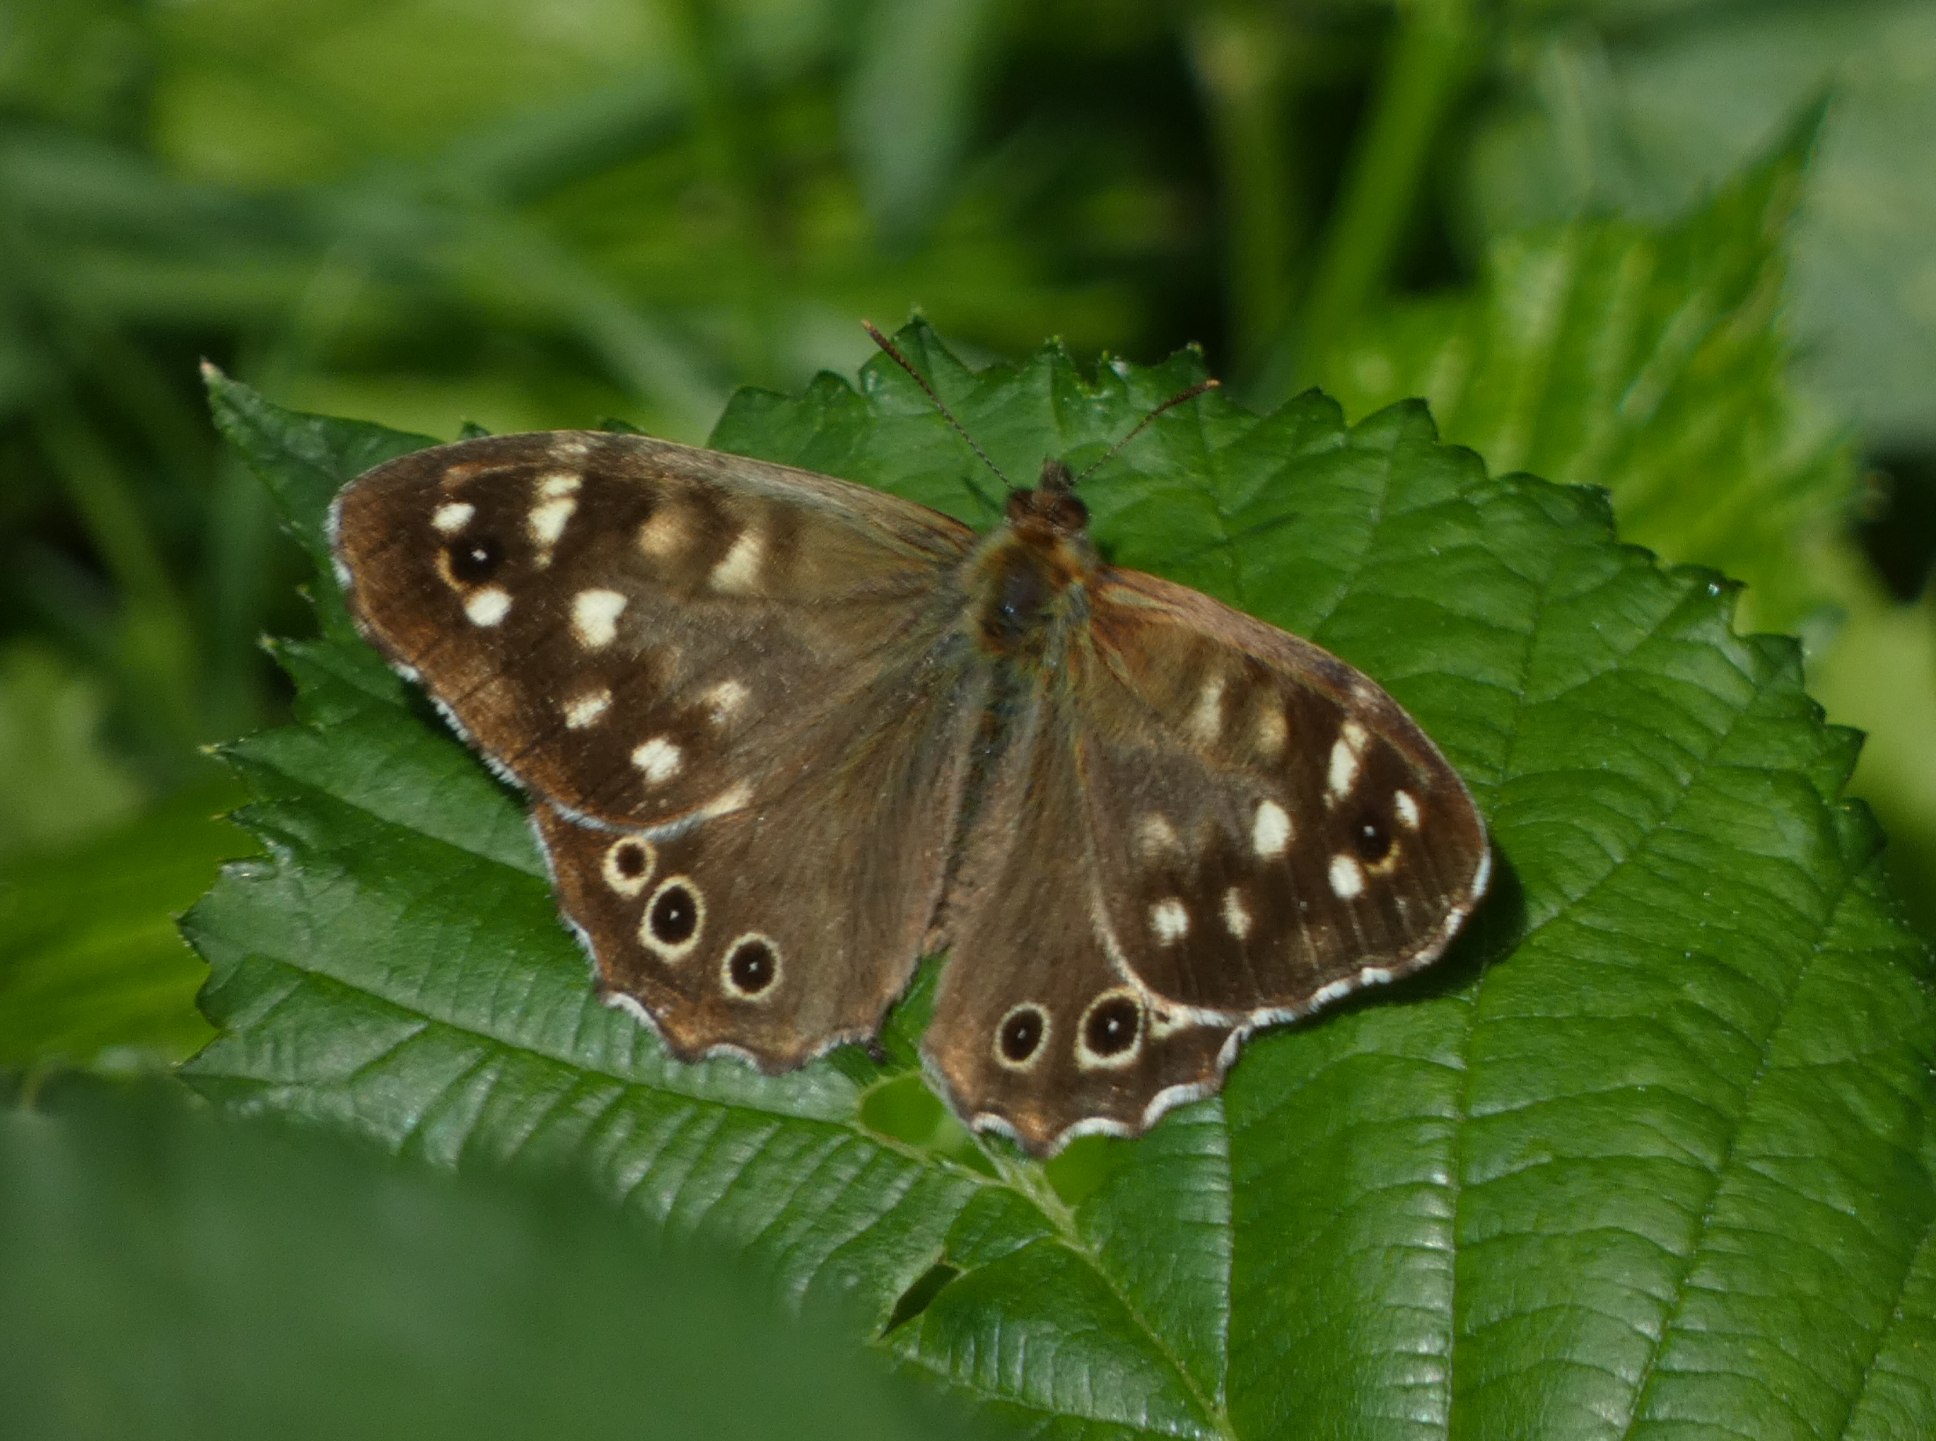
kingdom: Animalia
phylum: Arthropoda
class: Insecta
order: Lepidoptera
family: Nymphalidae
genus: Pararge
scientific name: Pararge aegeria
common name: Skovrandøje
